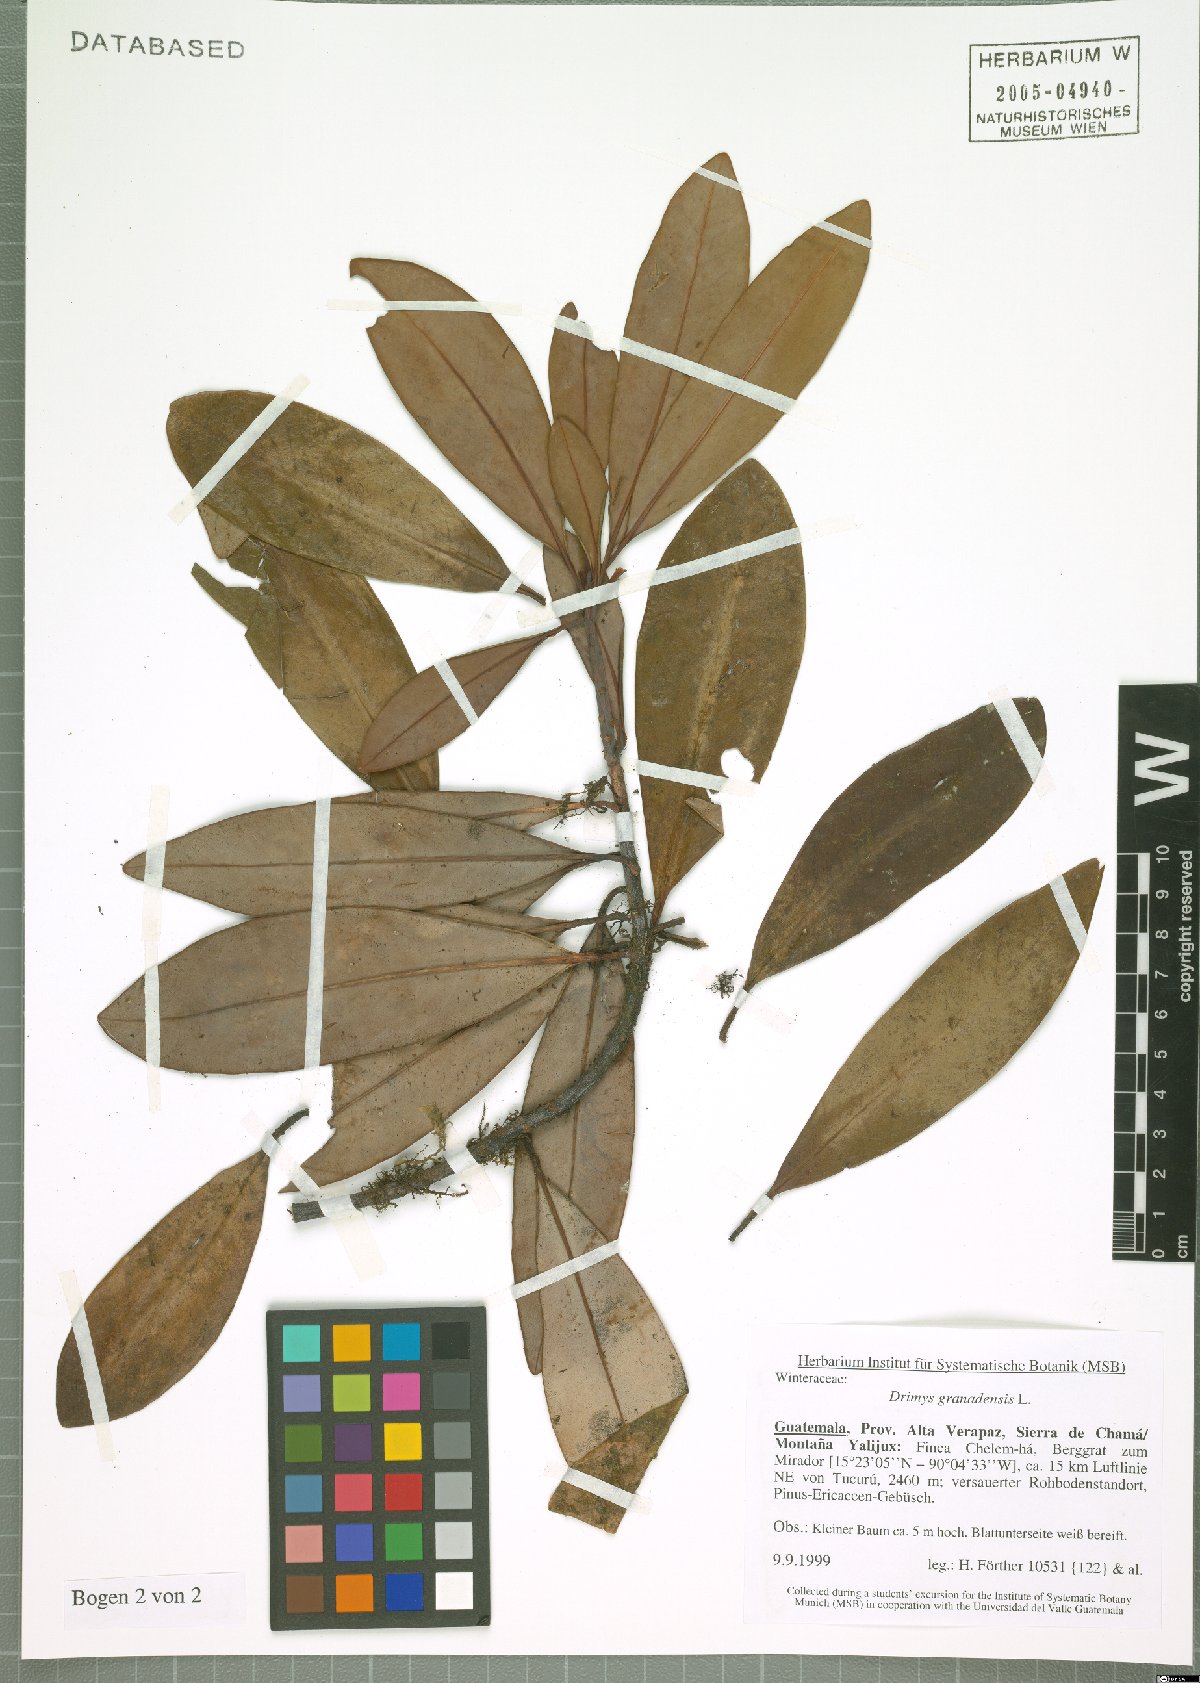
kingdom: Plantae
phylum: Tracheophyta
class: Magnoliopsida
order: Canellales
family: Winteraceae
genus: Drimys
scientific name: Drimys granadensis
